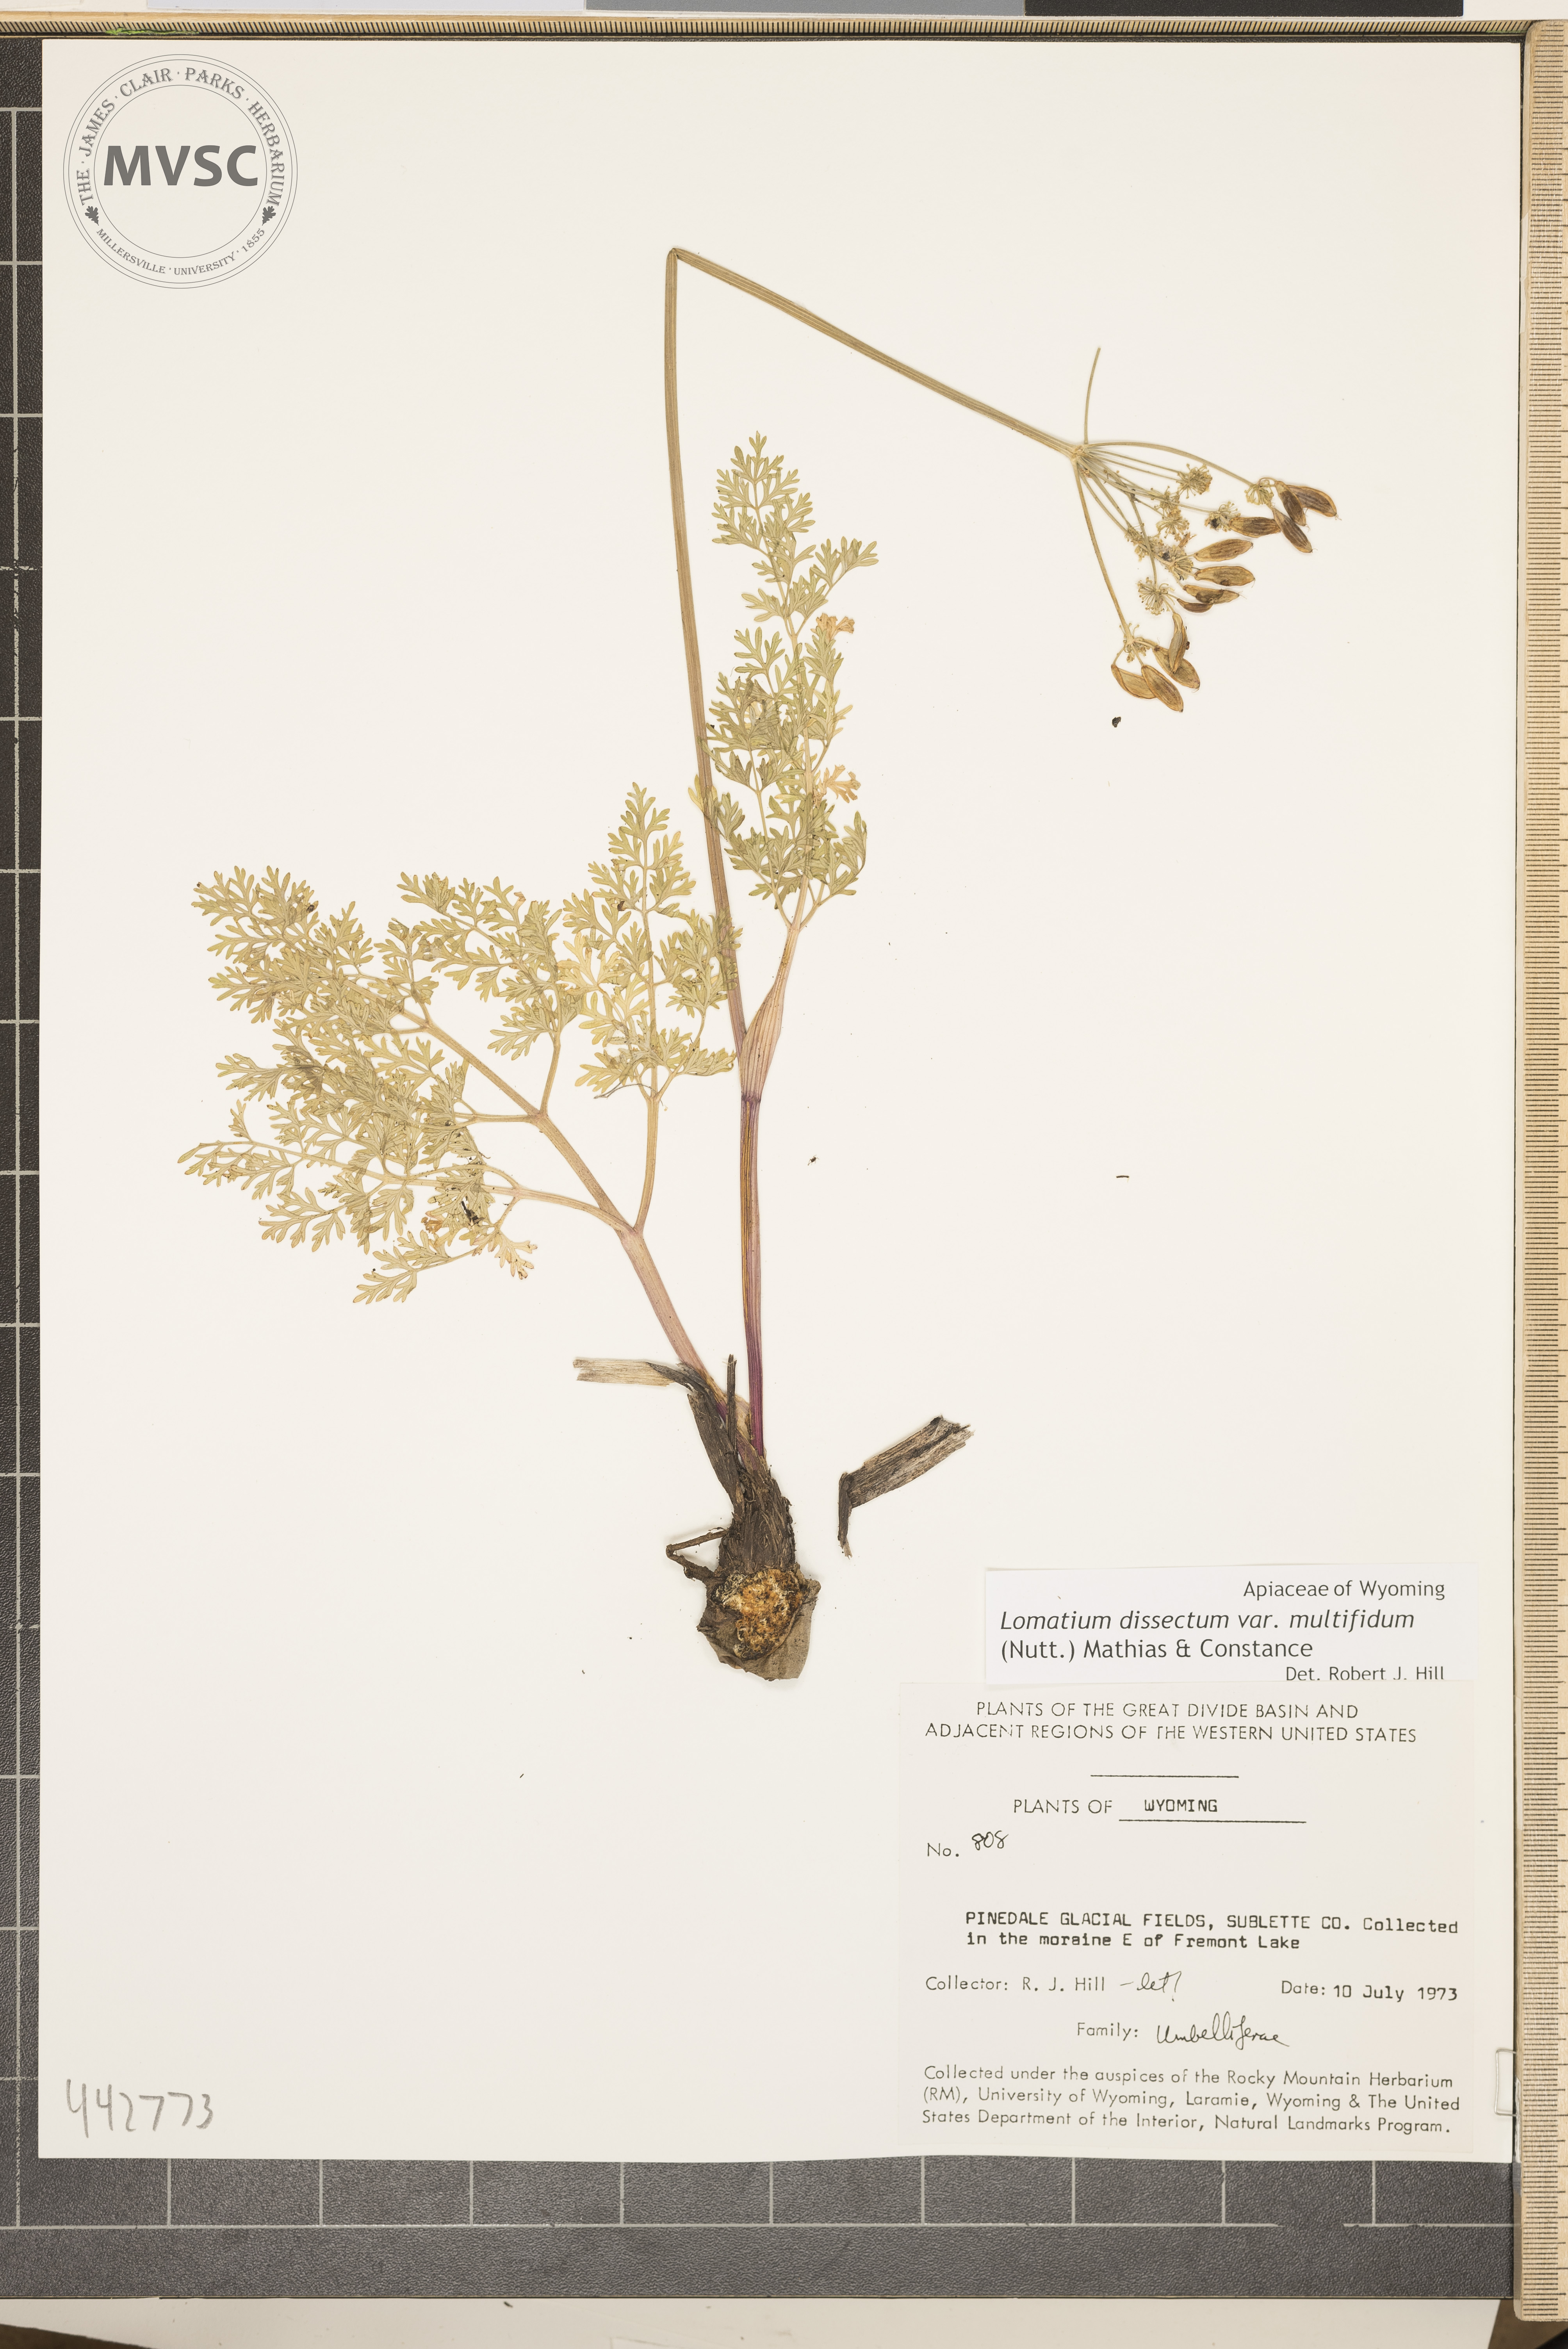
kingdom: Plantae
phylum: Tracheophyta
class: Magnoliopsida
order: Apiales
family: Apiaceae
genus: Lomatium
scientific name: Lomatium dissectum
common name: Lomatium
